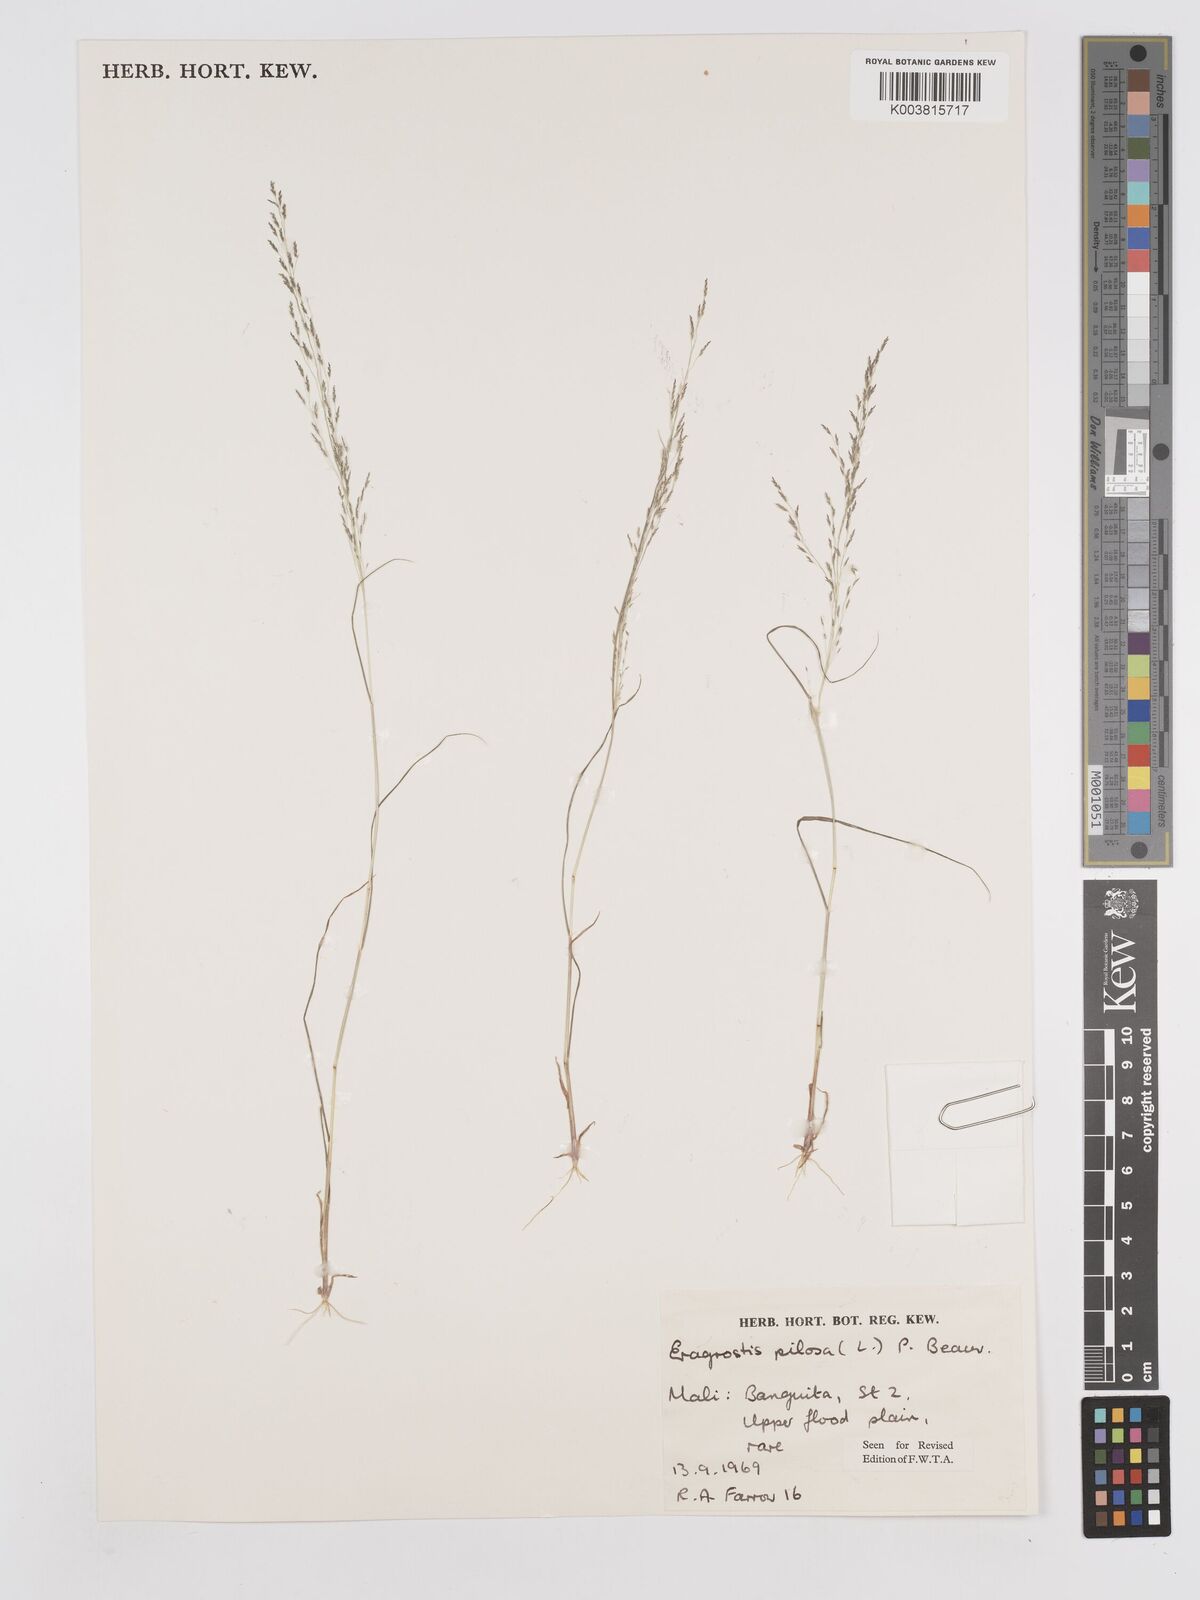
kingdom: Plantae
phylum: Tracheophyta
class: Liliopsida
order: Poales
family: Poaceae
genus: Eragrostis
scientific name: Eragrostis pilosa
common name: Indian lovegrass
